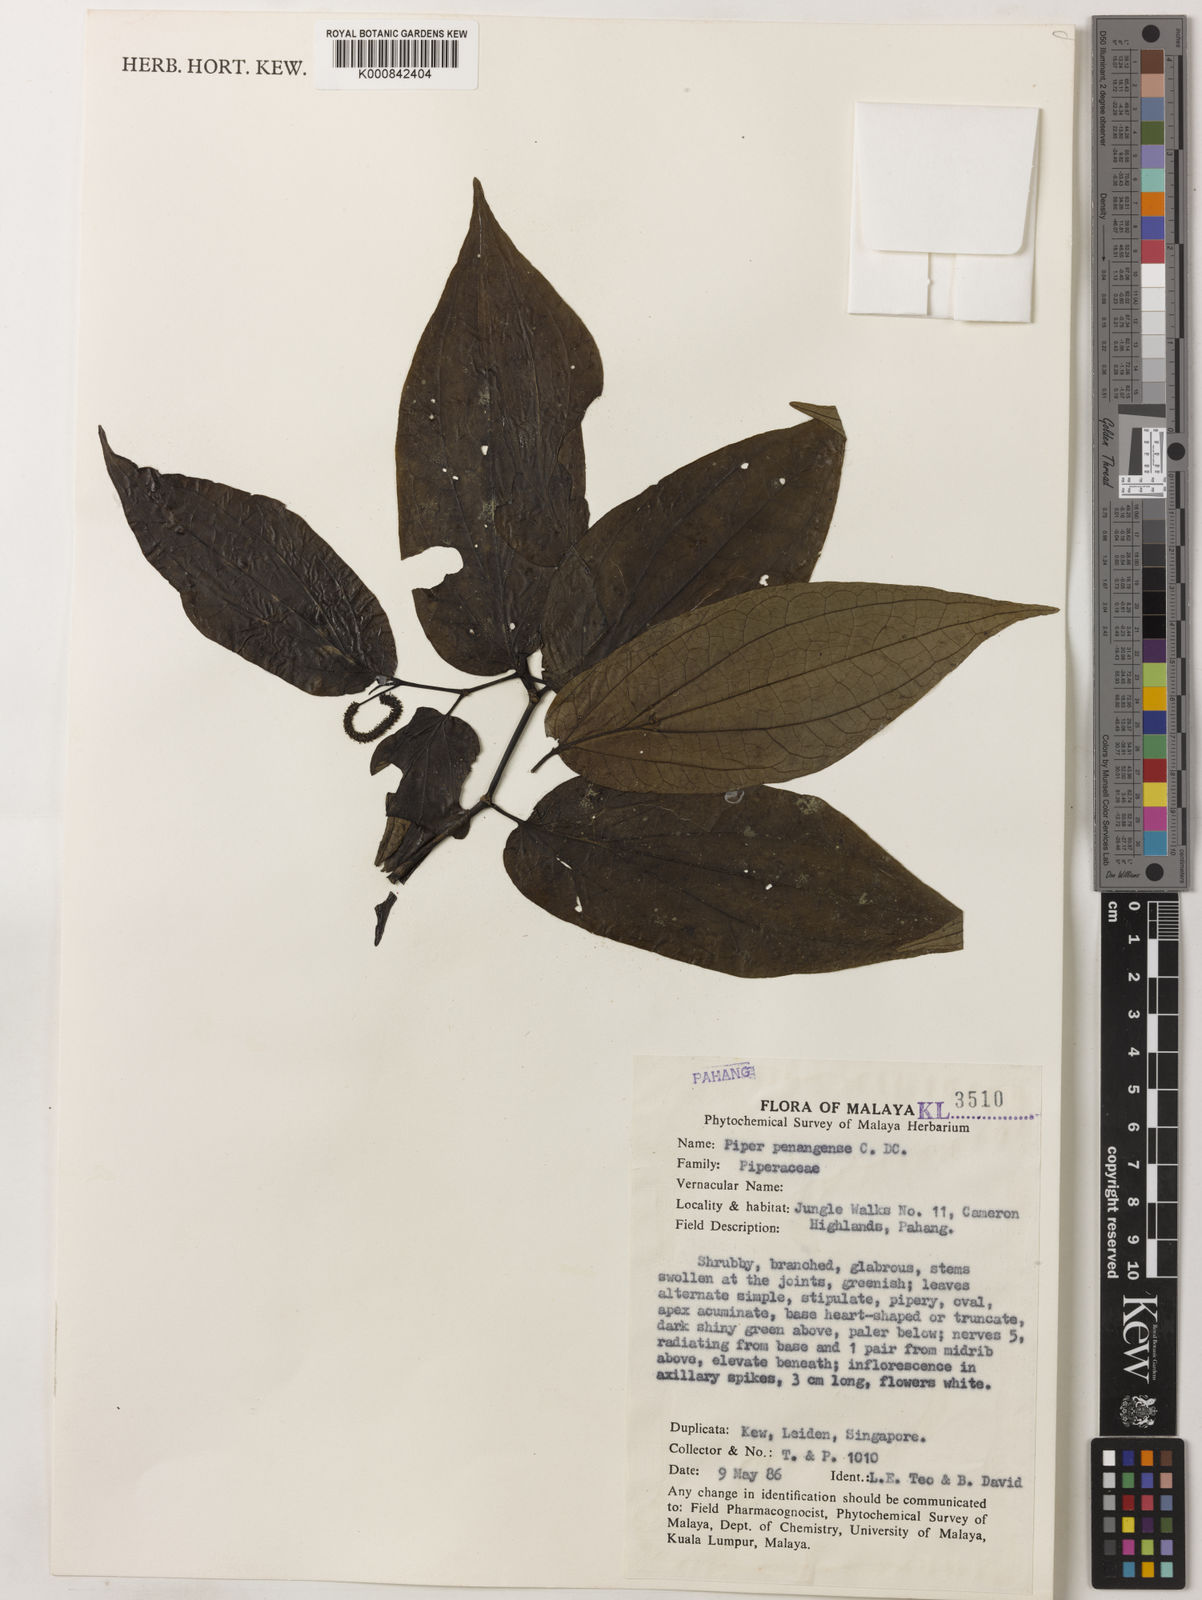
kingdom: Plantae
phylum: Tracheophyta
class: Magnoliopsida
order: Piperales
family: Piperaceae
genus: Piper
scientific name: Piper penangense
